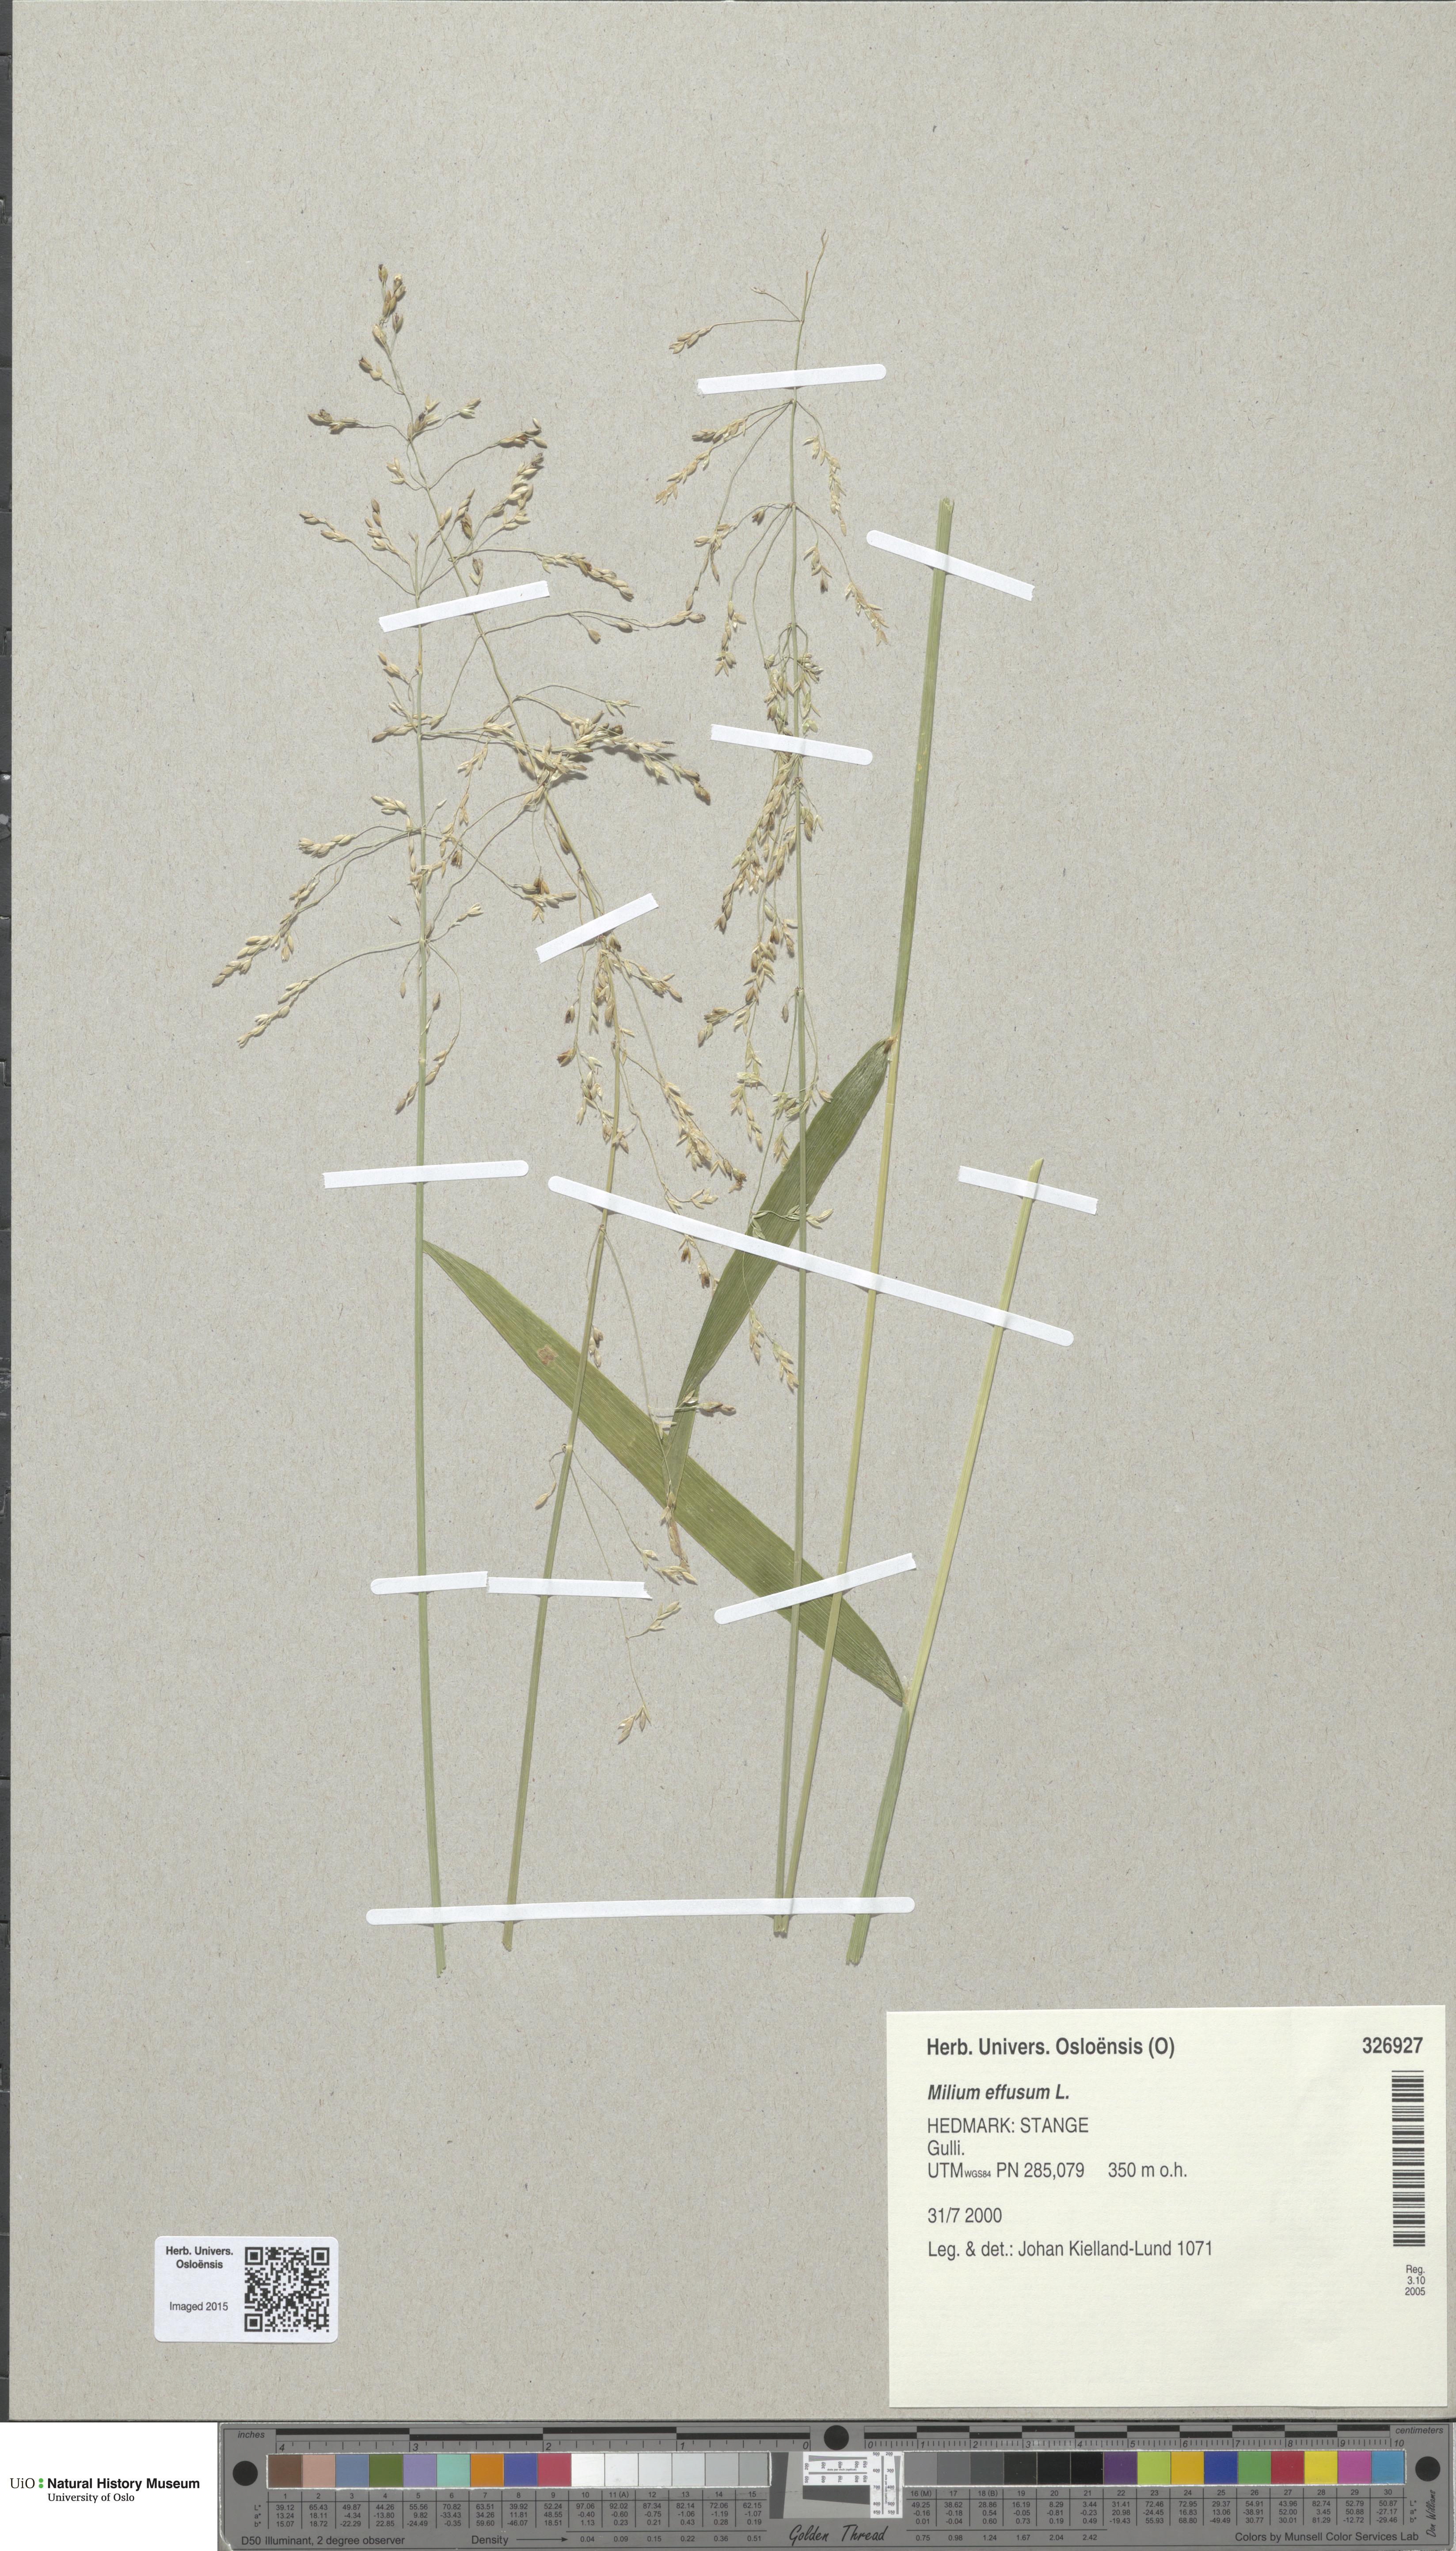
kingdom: Plantae
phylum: Tracheophyta
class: Liliopsida
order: Poales
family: Poaceae
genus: Milium
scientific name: Milium effusum
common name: Wood millet
